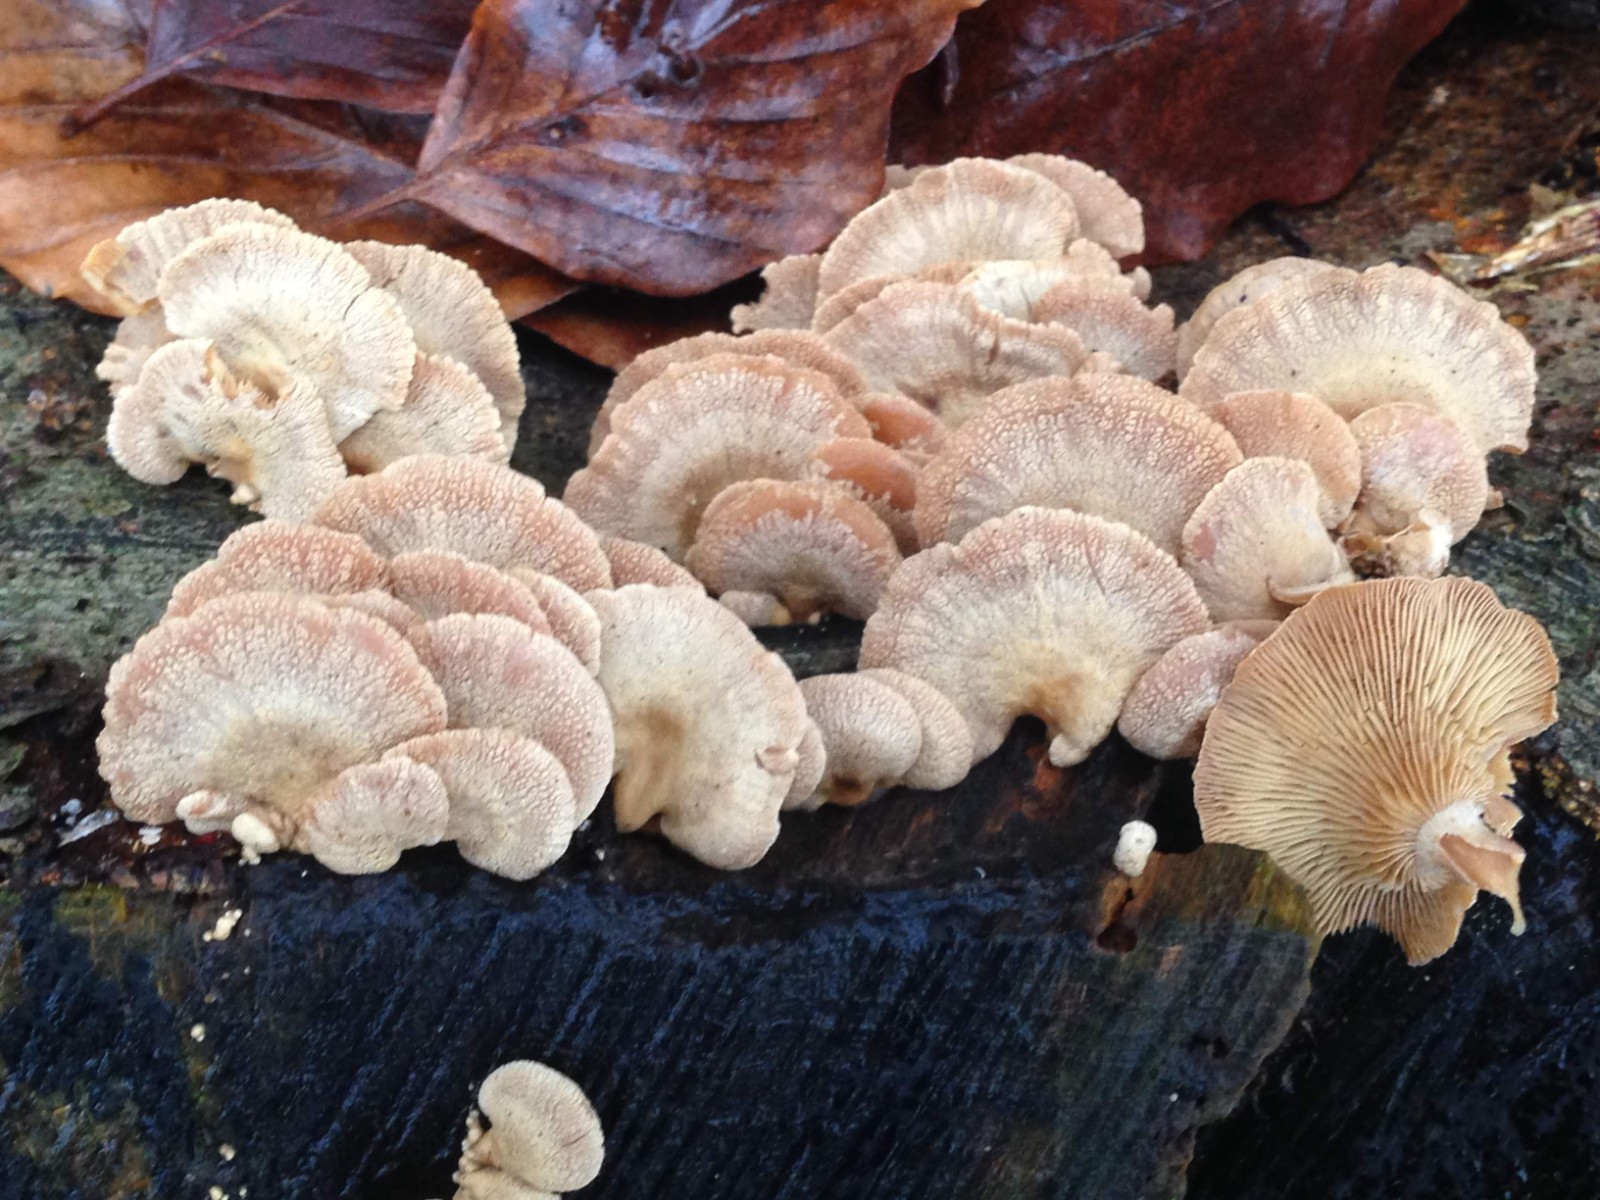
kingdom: Fungi
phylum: Basidiomycota
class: Agaricomycetes
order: Agaricales
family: Mycenaceae
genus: Panellus
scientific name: Panellus stipticus
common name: kliddet epaulethat
